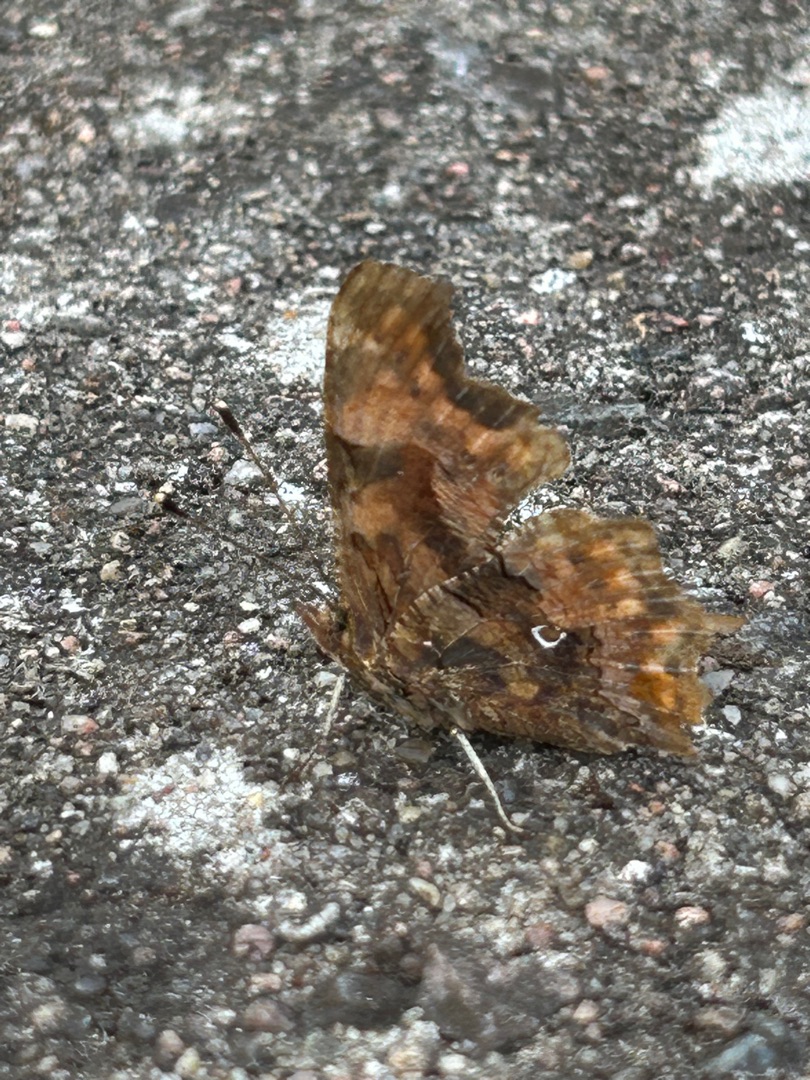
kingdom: Animalia
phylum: Arthropoda
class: Insecta
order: Lepidoptera
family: Nymphalidae
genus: Polygonia
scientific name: Polygonia c-album
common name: Det hvide C
